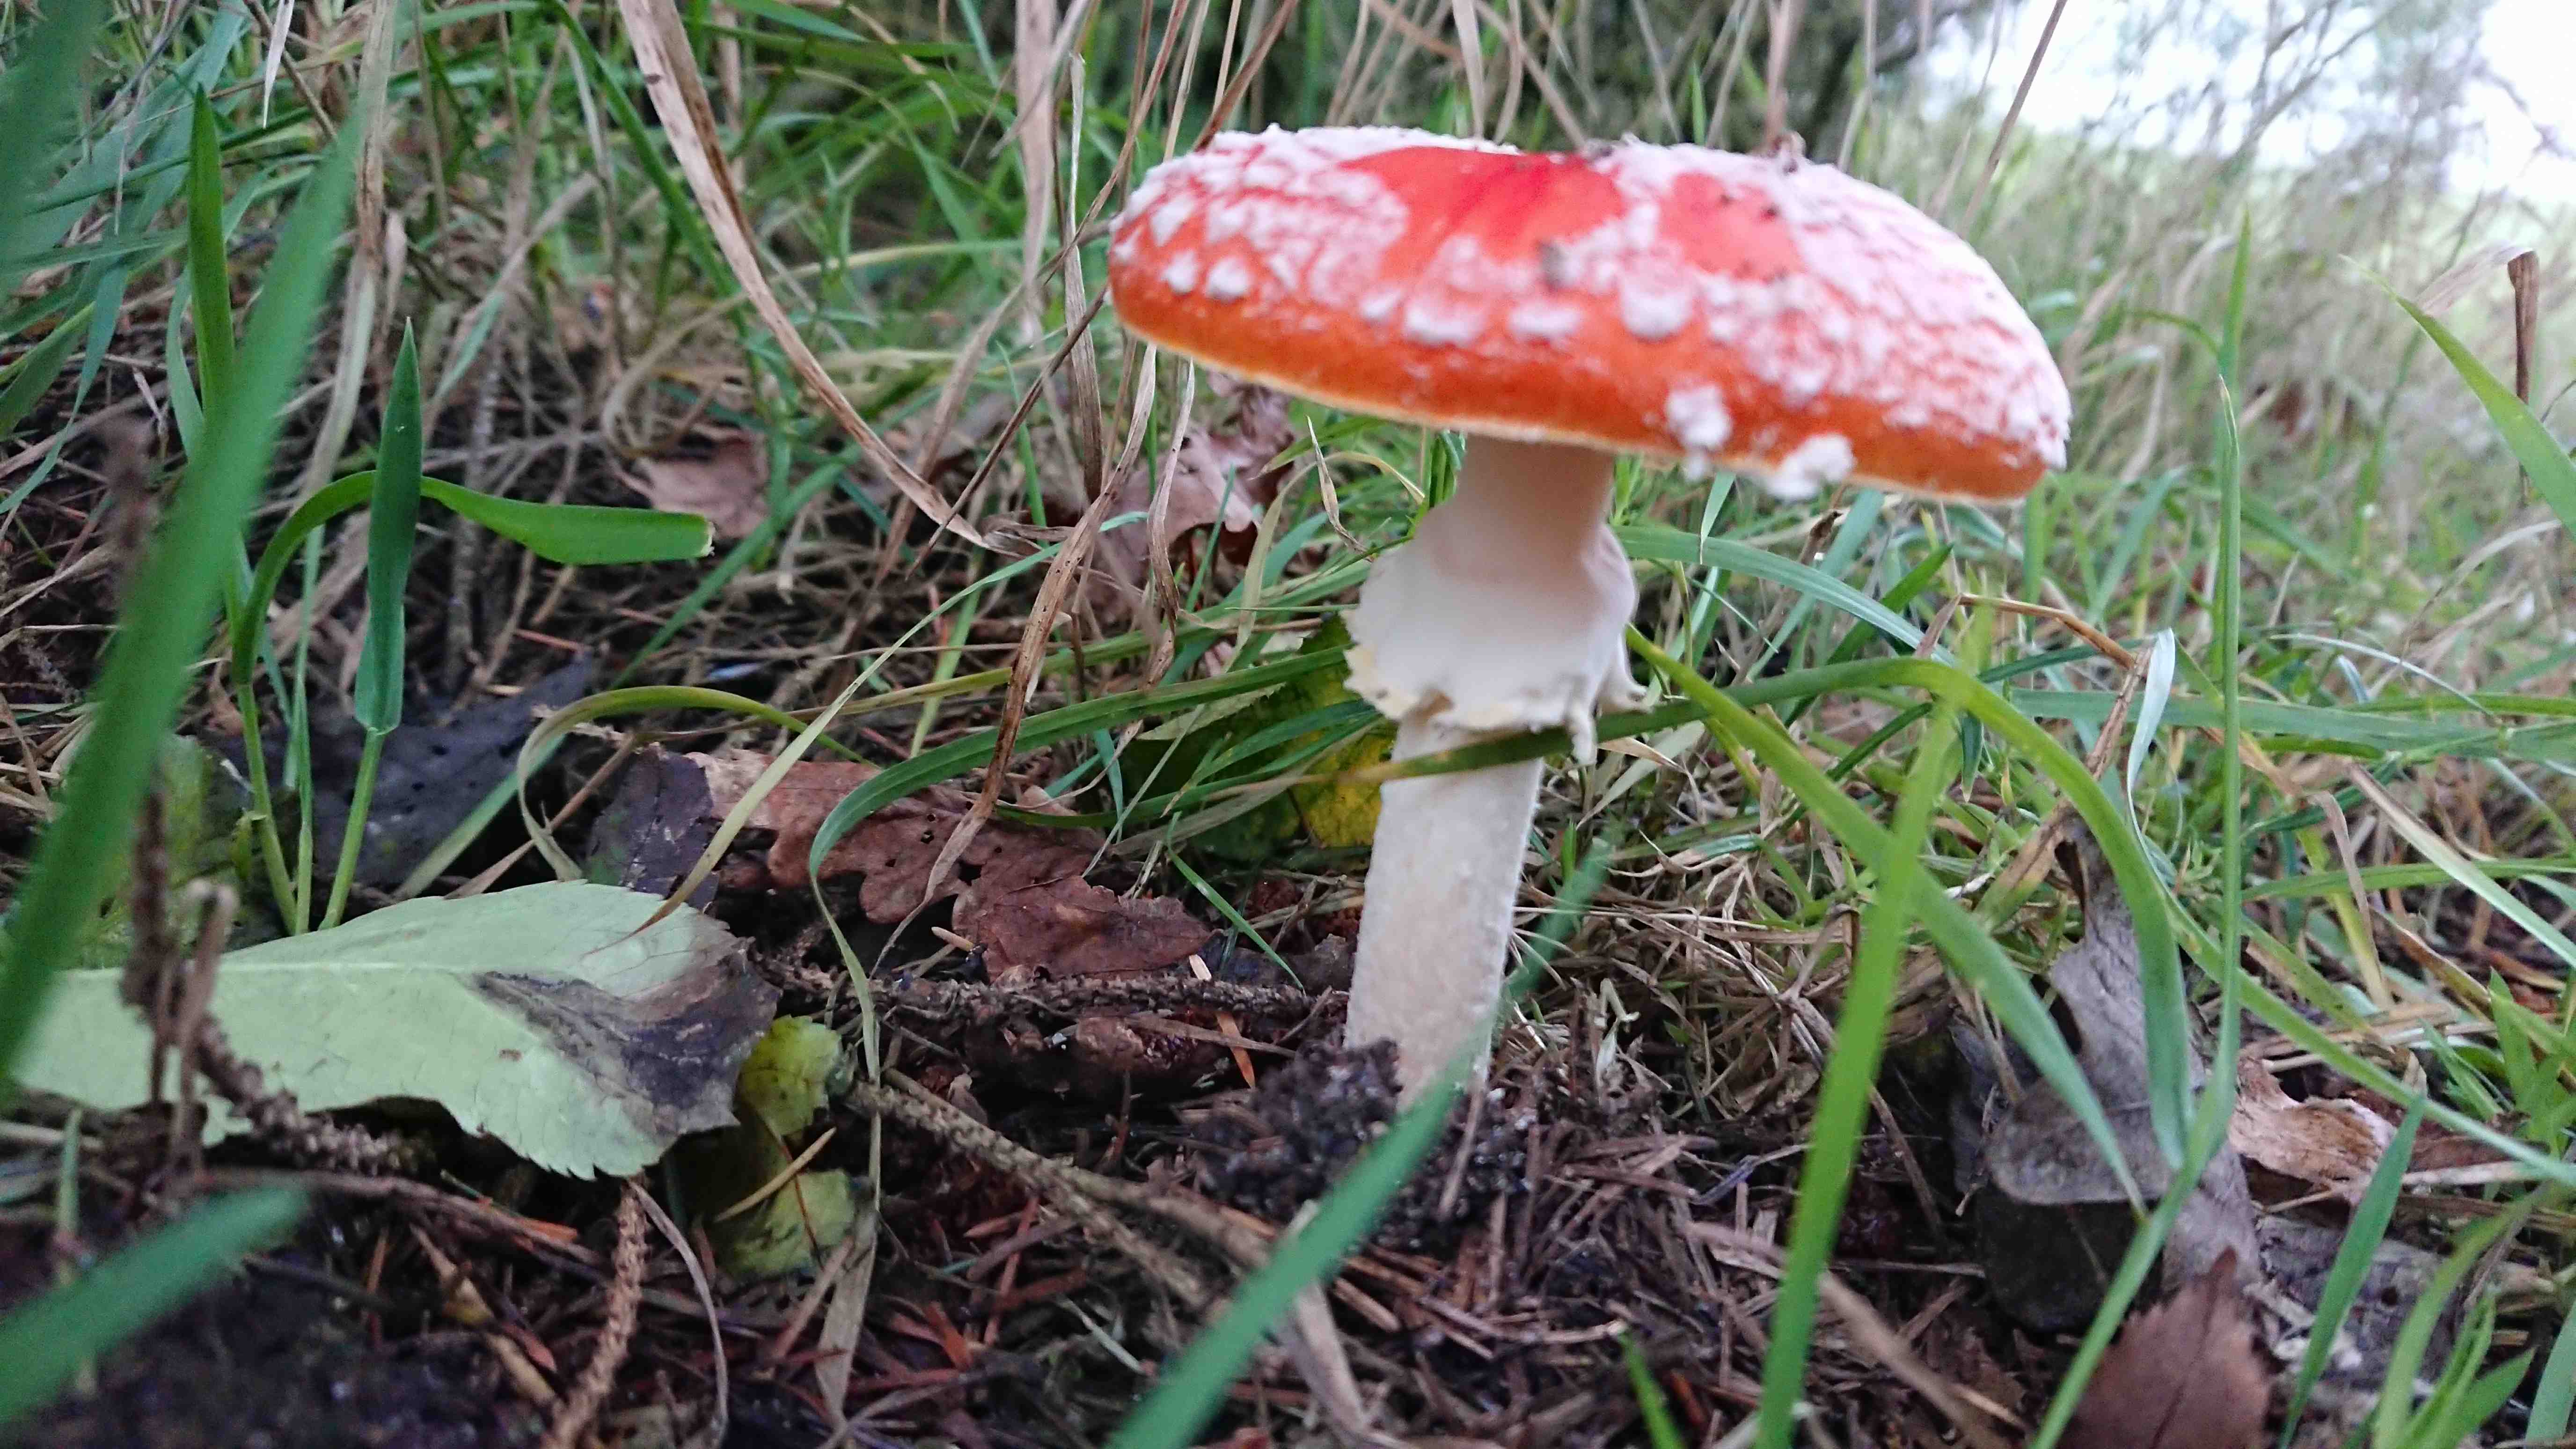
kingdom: Fungi
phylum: Basidiomycota
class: Agaricomycetes
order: Agaricales
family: Amanitaceae
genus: Amanita
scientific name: Amanita muscaria
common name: rød fluesvamp
